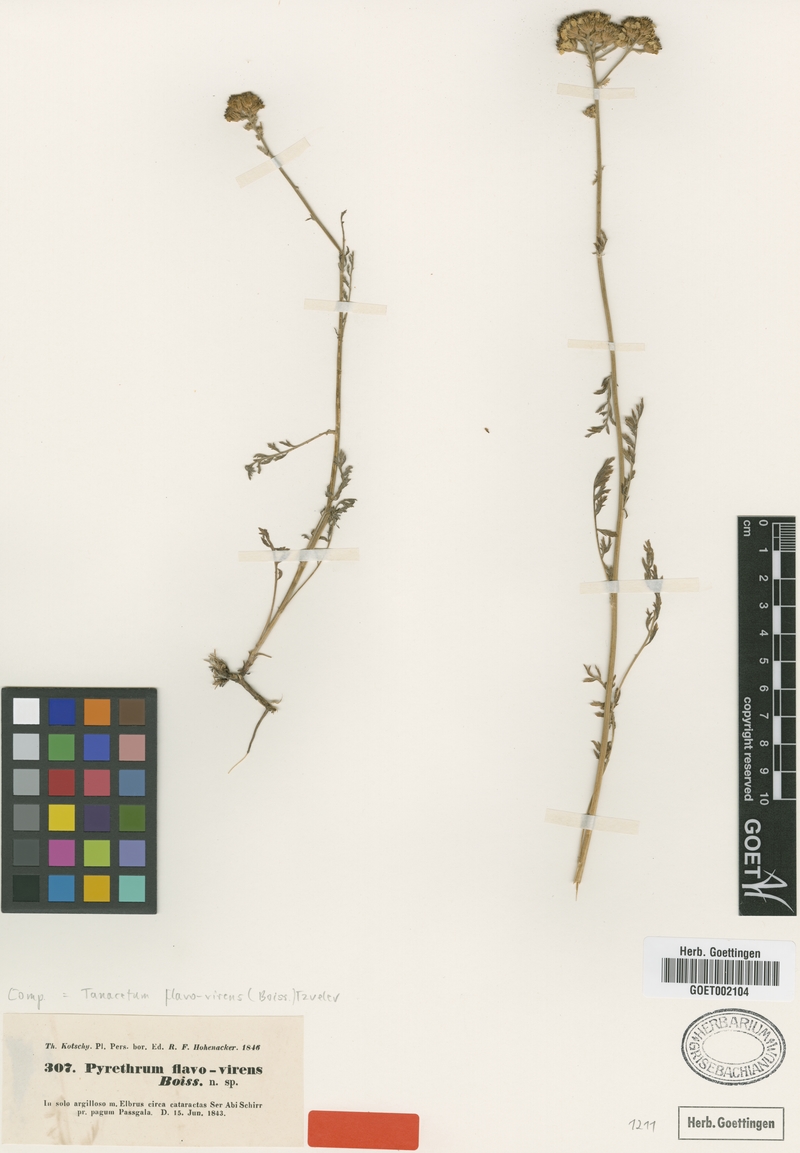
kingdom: Plantae
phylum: Tracheophyta
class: Magnoliopsida
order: Asterales
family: Asteraceae
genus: Tanacetum
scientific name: Tanacetum pinnatum
